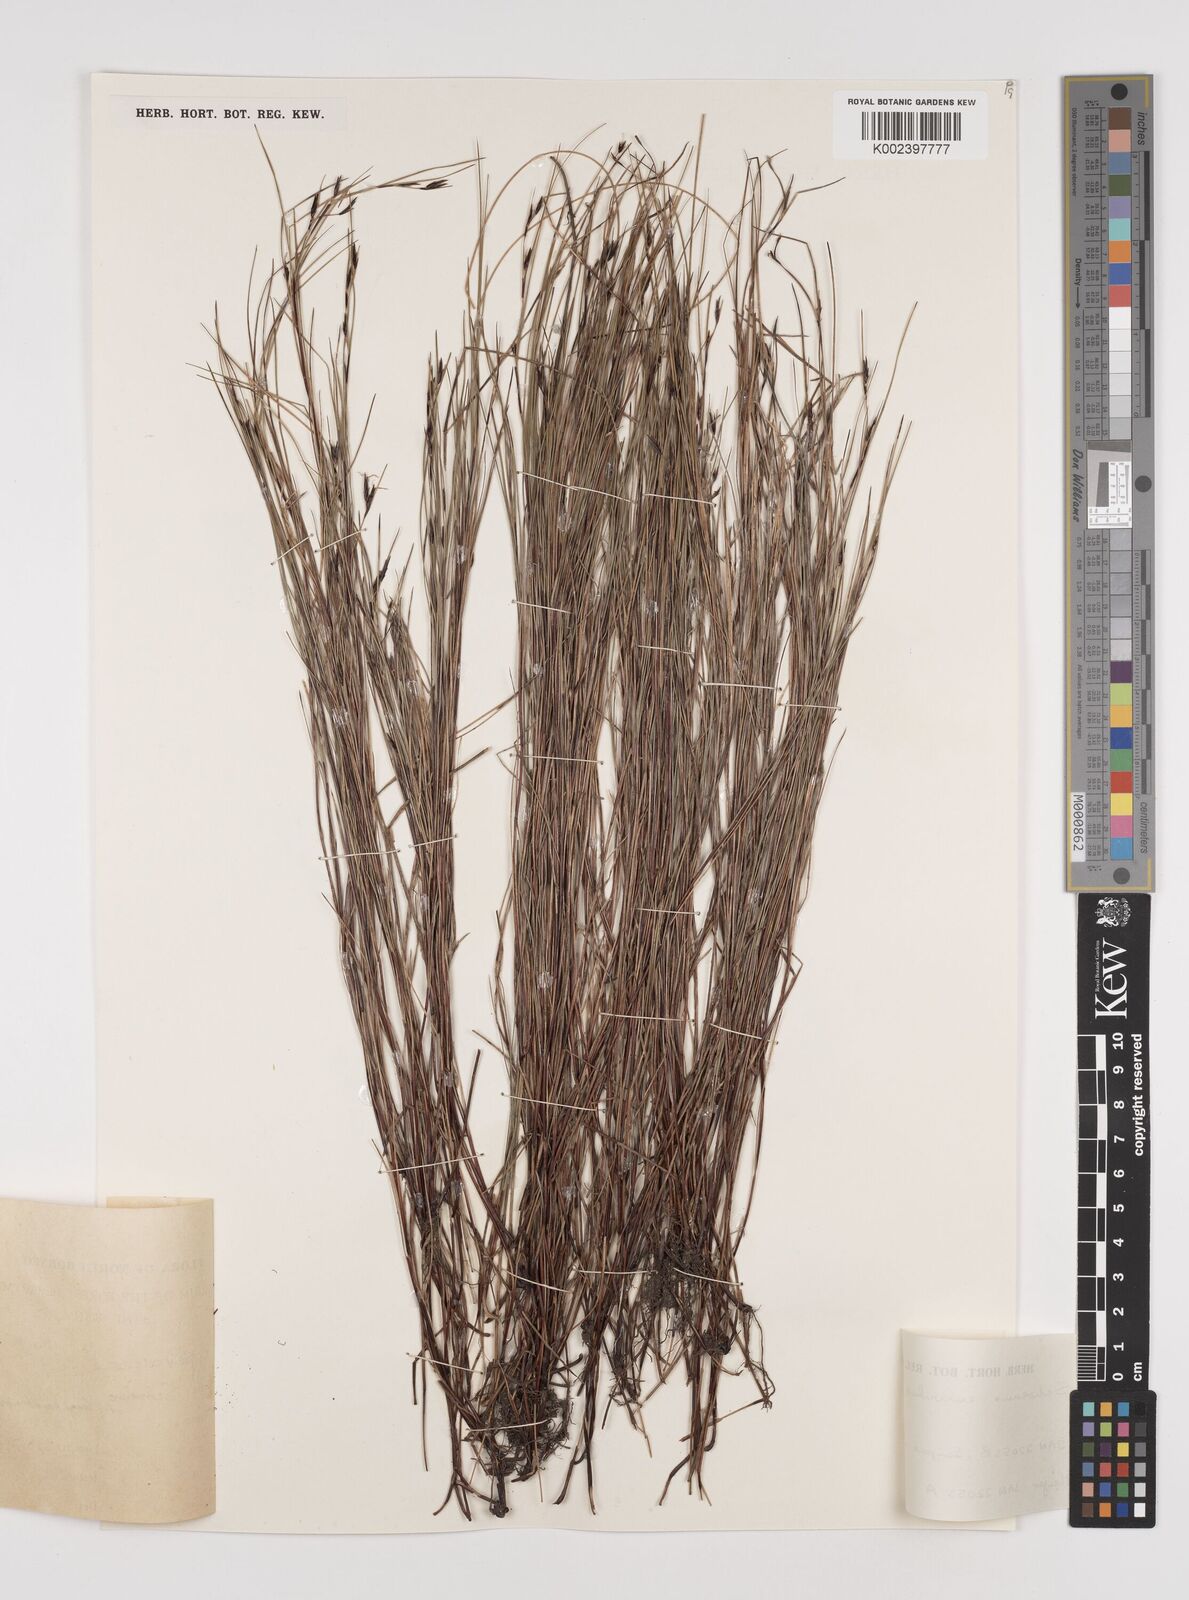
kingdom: Plantae
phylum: Tracheophyta
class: Liliopsida
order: Poales
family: Cyperaceae
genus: Schoenus
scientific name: Schoenus curvulus
